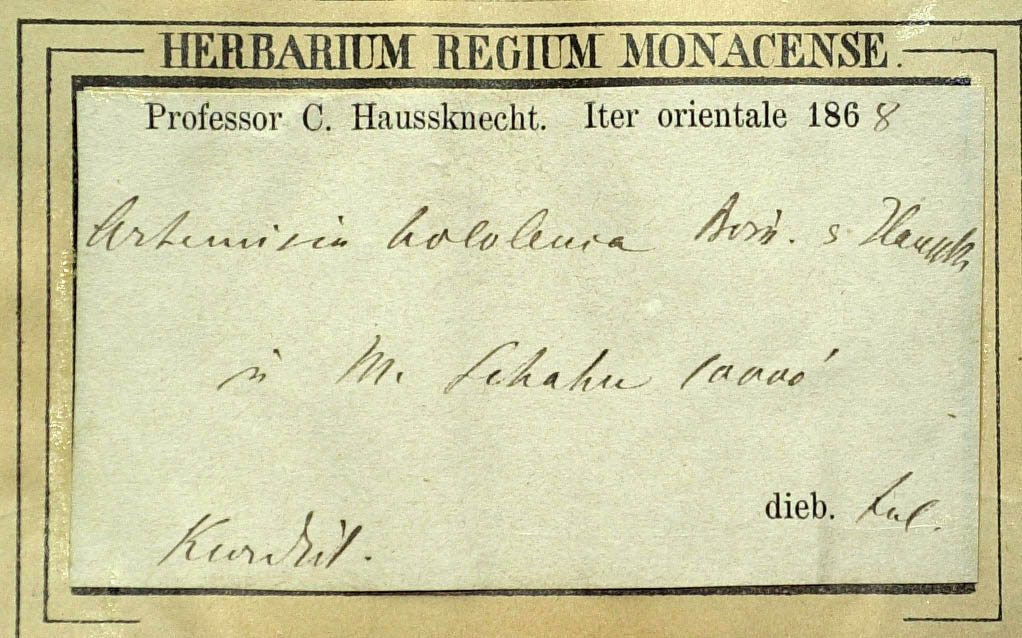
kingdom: Plantae
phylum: Tracheophyta
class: Magnoliopsida
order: Asterales
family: Asteraceae
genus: Artemisia
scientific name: Artemisia haussknechtii
